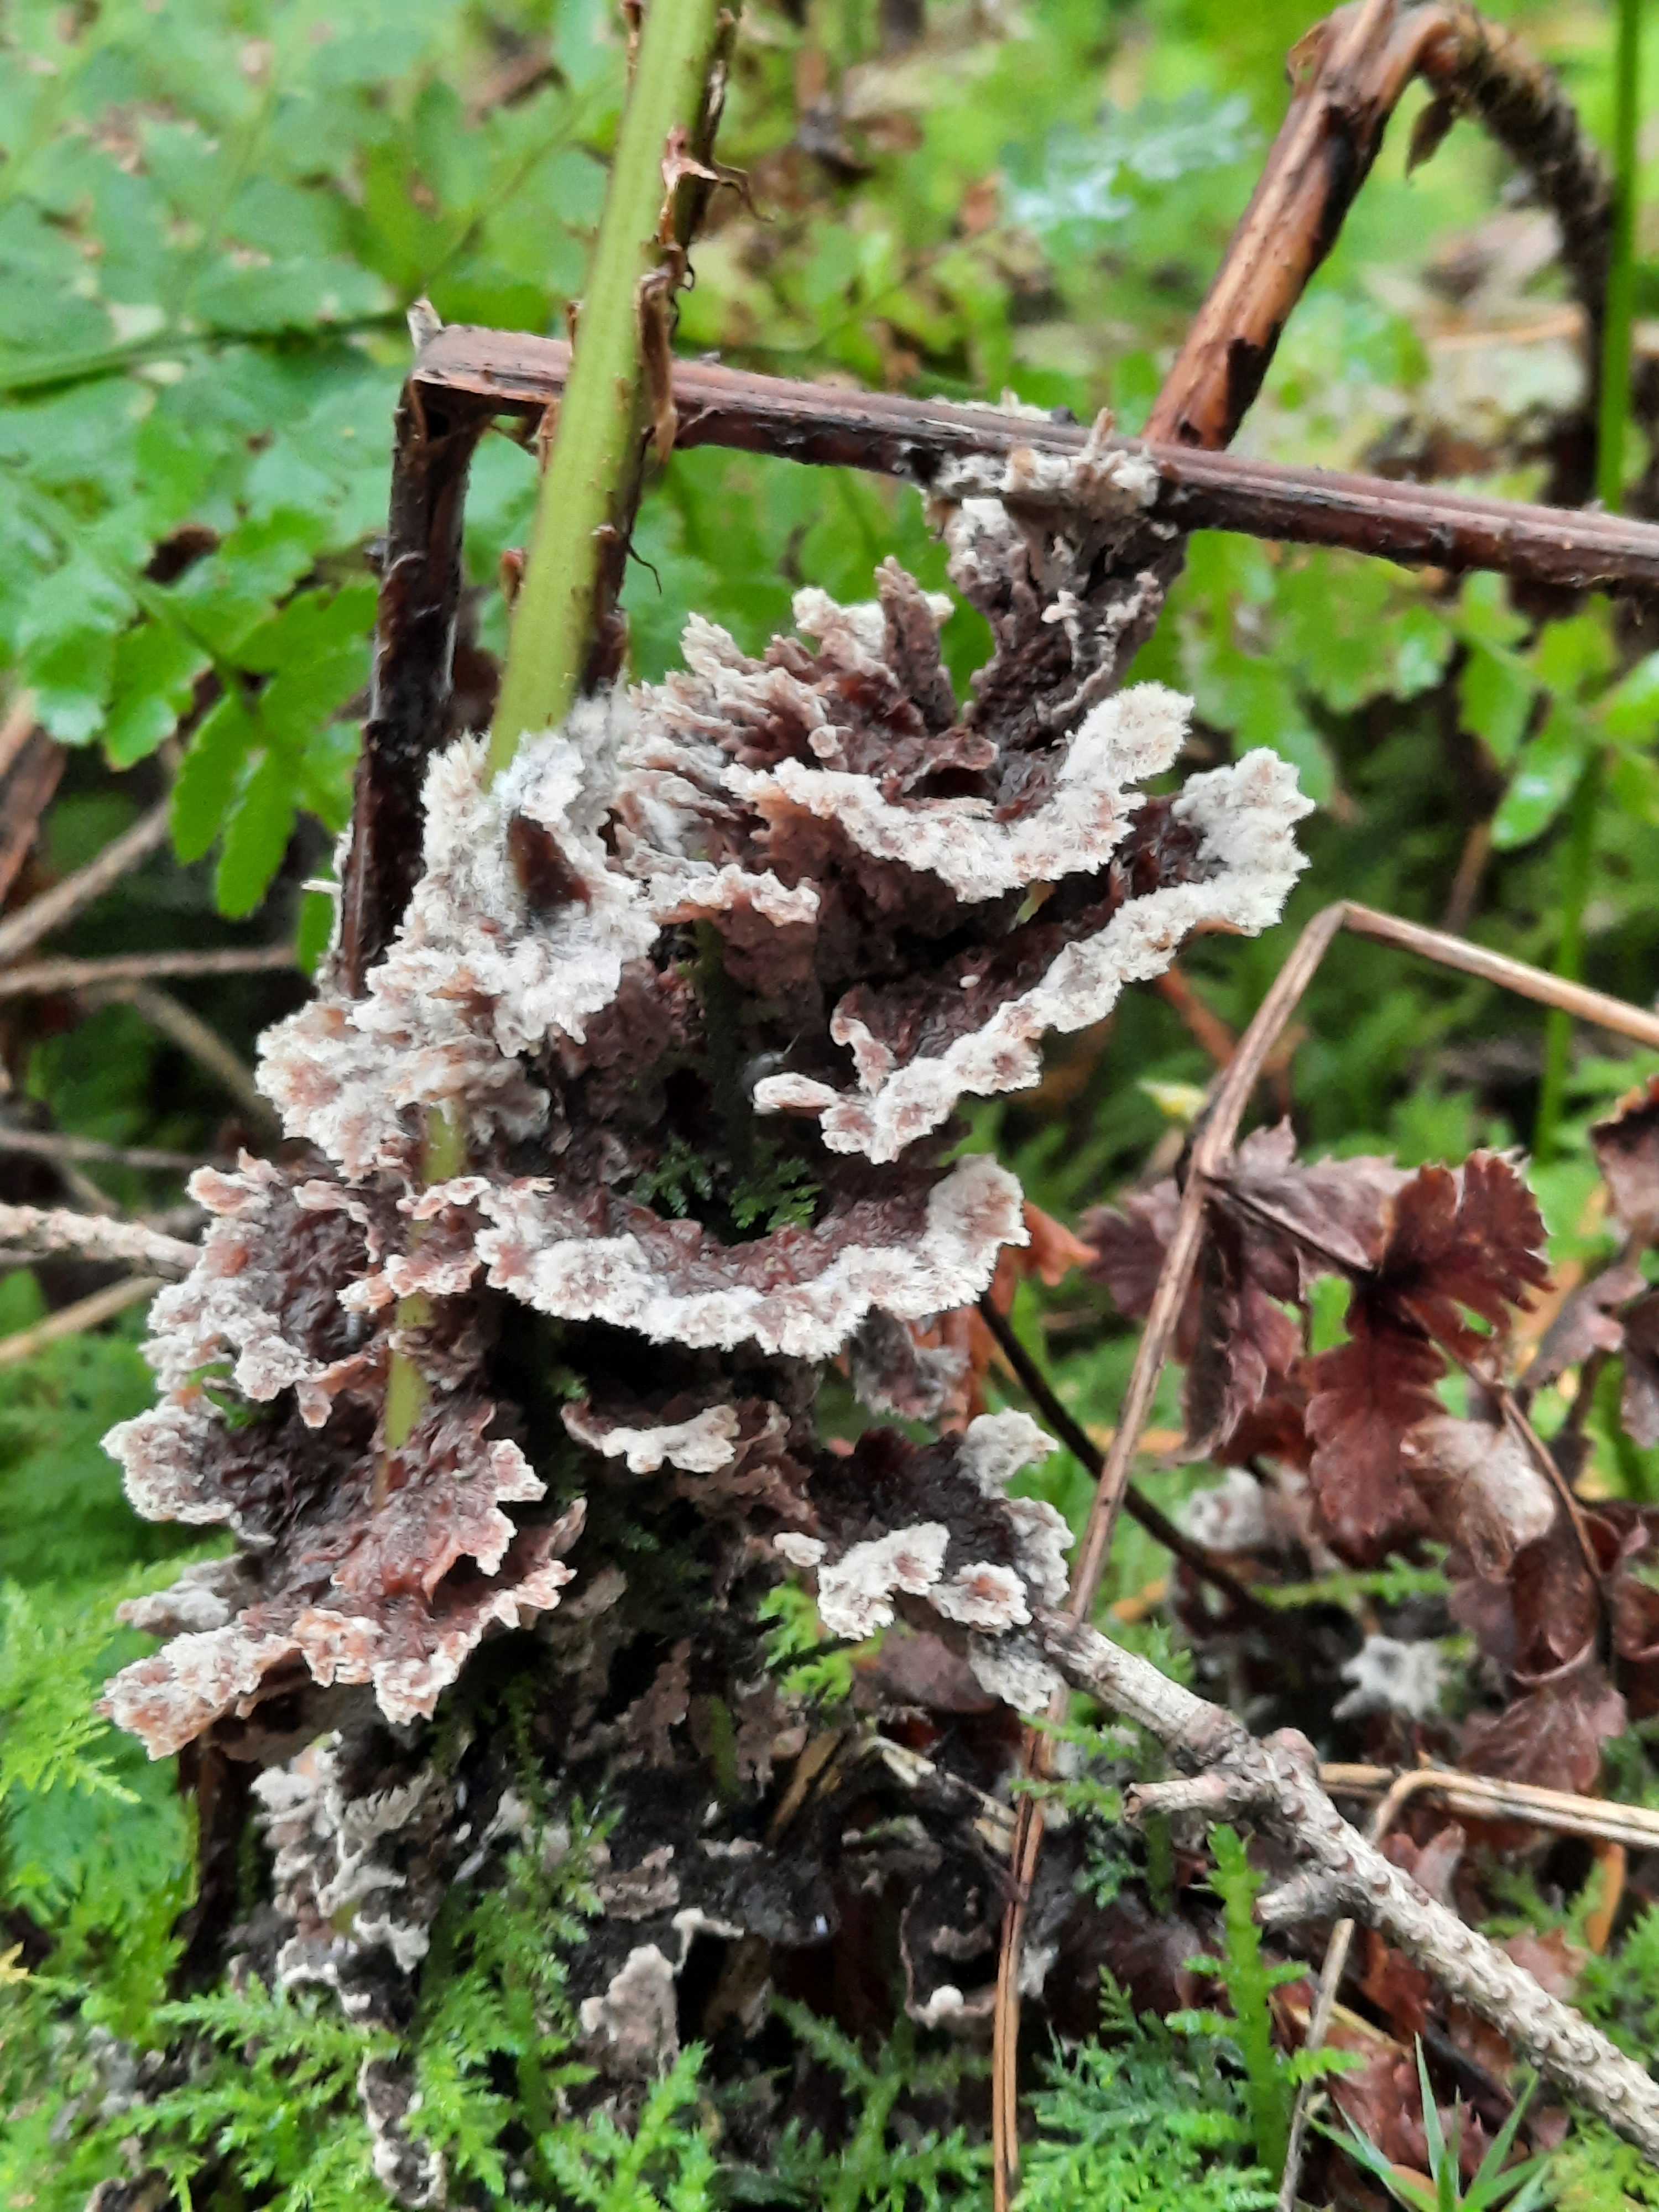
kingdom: Fungi
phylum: Basidiomycota
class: Agaricomycetes
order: Thelephorales
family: Thelephoraceae
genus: Thelephora
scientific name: Thelephora terrestris
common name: fliget frynsesvamp
